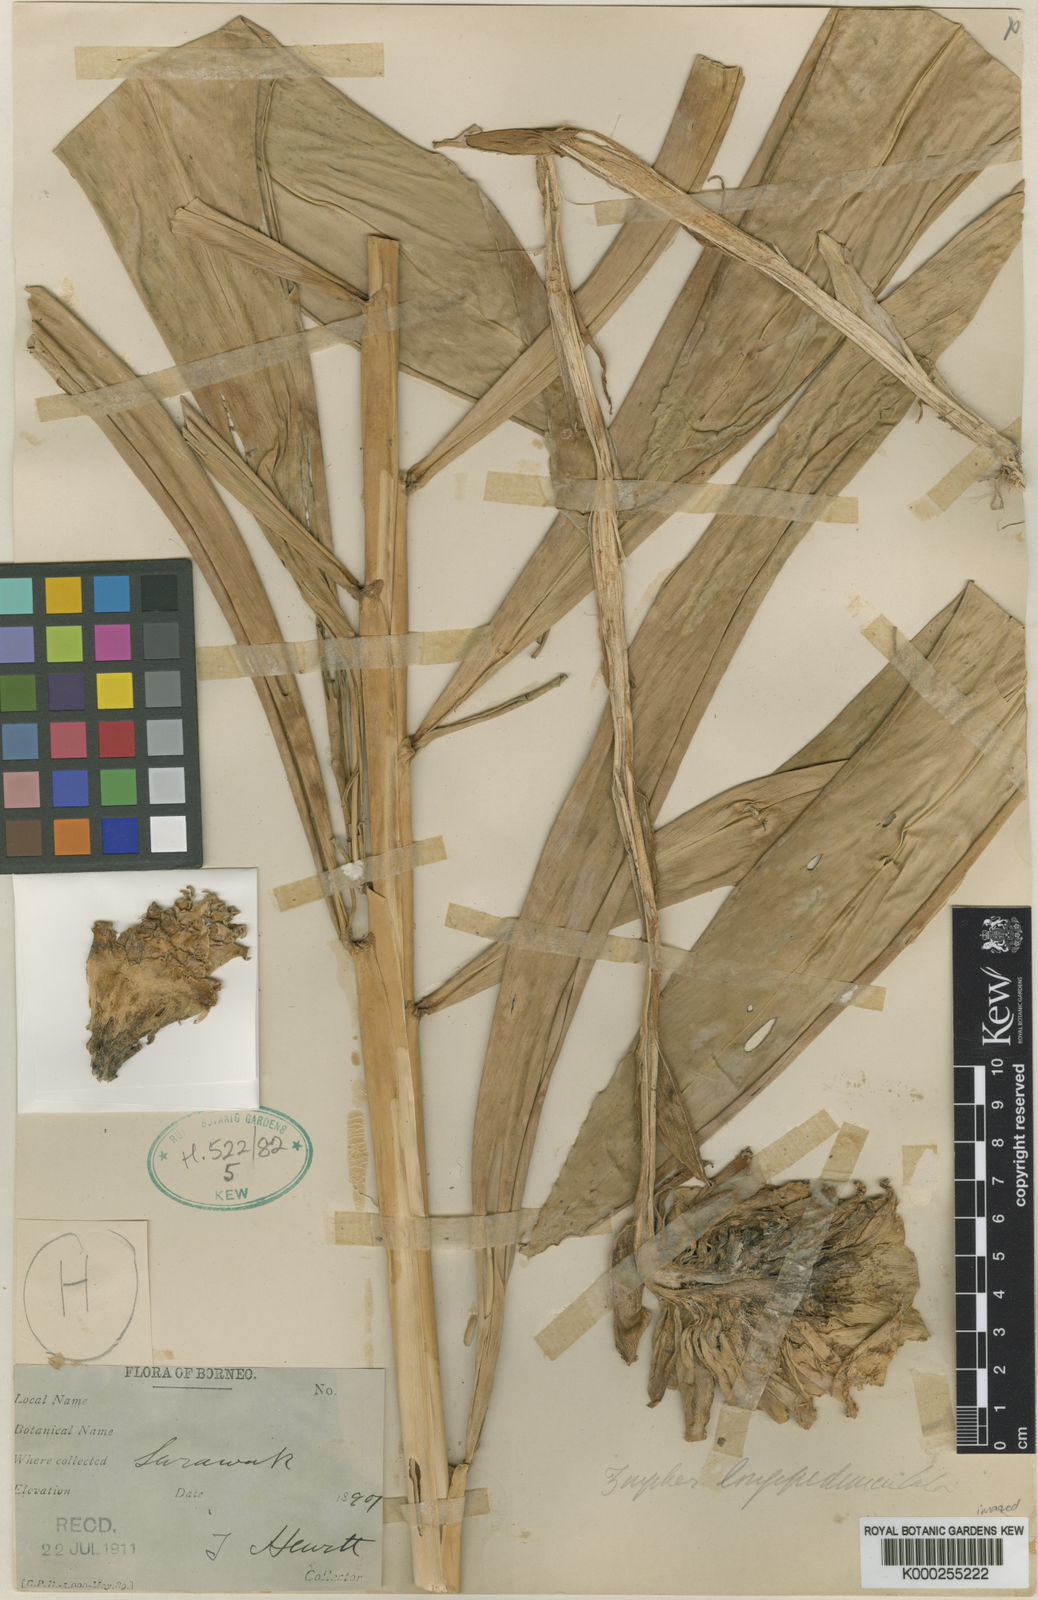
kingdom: Plantae
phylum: Tracheophyta
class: Liliopsida
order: Zingiberales
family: Zingiberaceae
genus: Zingiber
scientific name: Zingiber longipedunculatum
